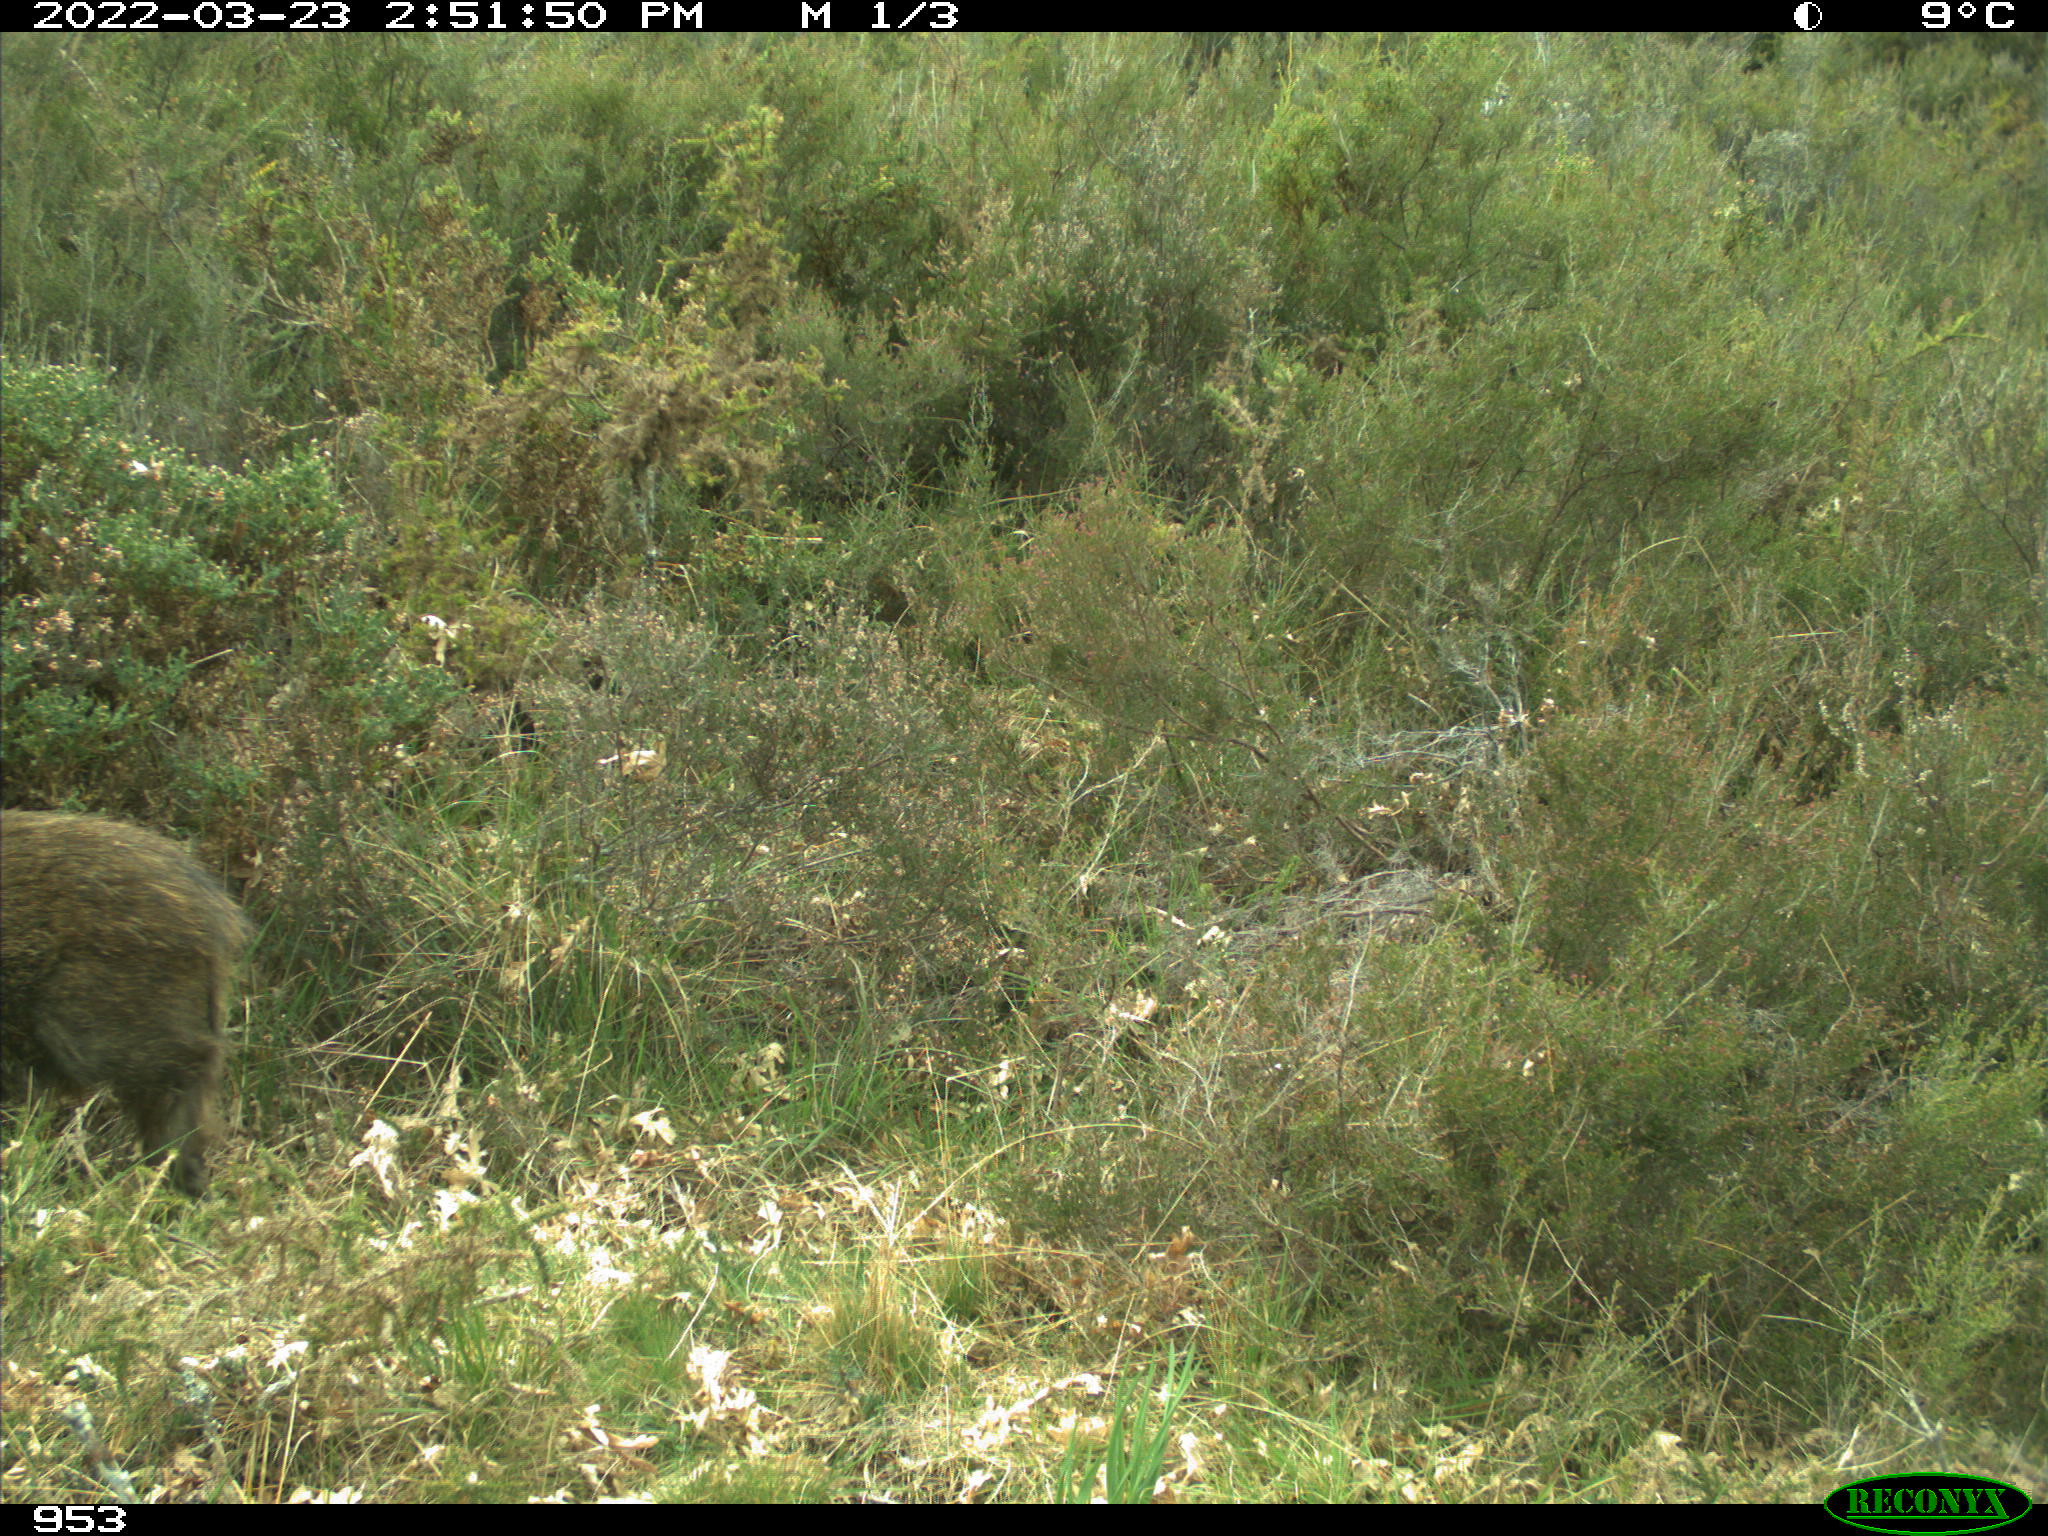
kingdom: Animalia
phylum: Chordata
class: Mammalia
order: Artiodactyla
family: Suidae
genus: Sus
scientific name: Sus scrofa
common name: Wild boar
